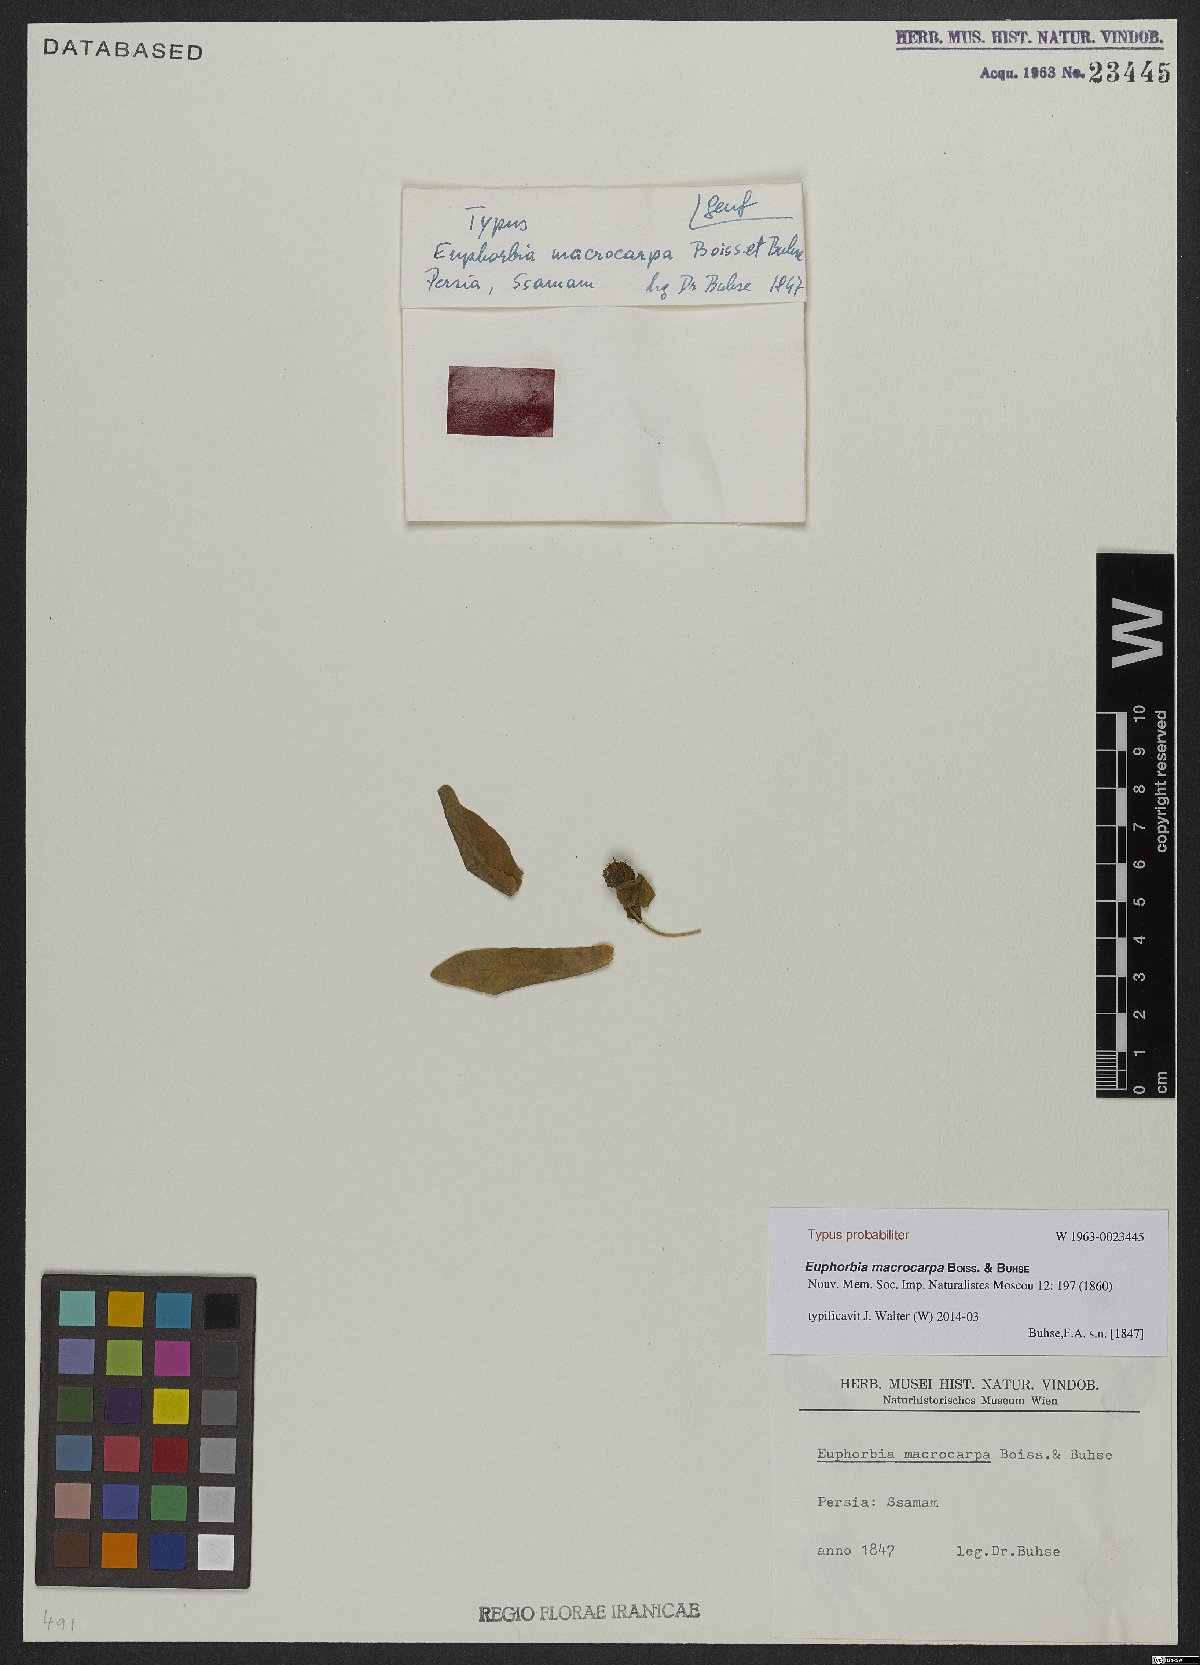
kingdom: Plantae
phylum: Tracheophyta
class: Magnoliopsida
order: Malpighiales
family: Euphorbiaceae
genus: Euphorbia
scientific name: Euphorbia macrocarpa
